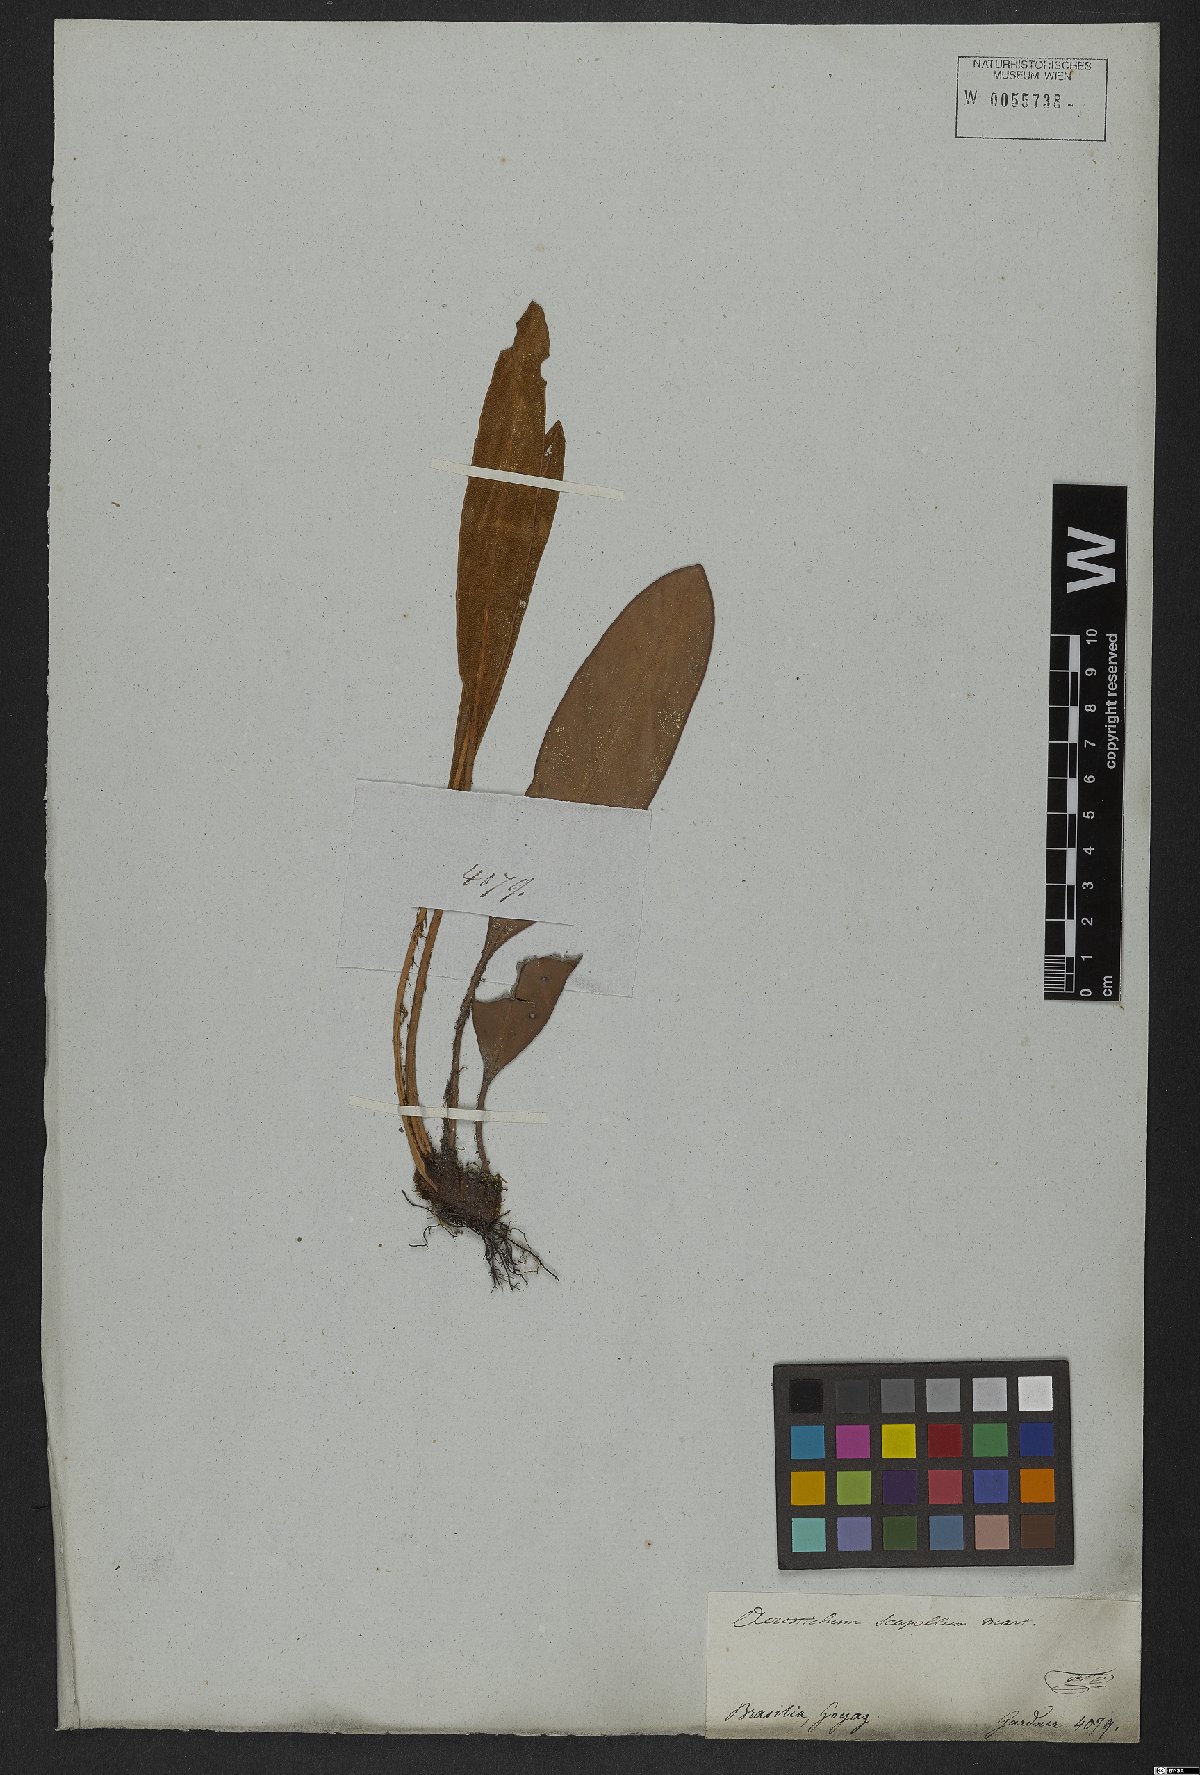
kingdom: Plantae
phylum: Tracheophyta
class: Polypodiopsida
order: Polypodiales
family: Dryopteridaceae
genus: Elaphoglossum
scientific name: Elaphoglossum latifolium
